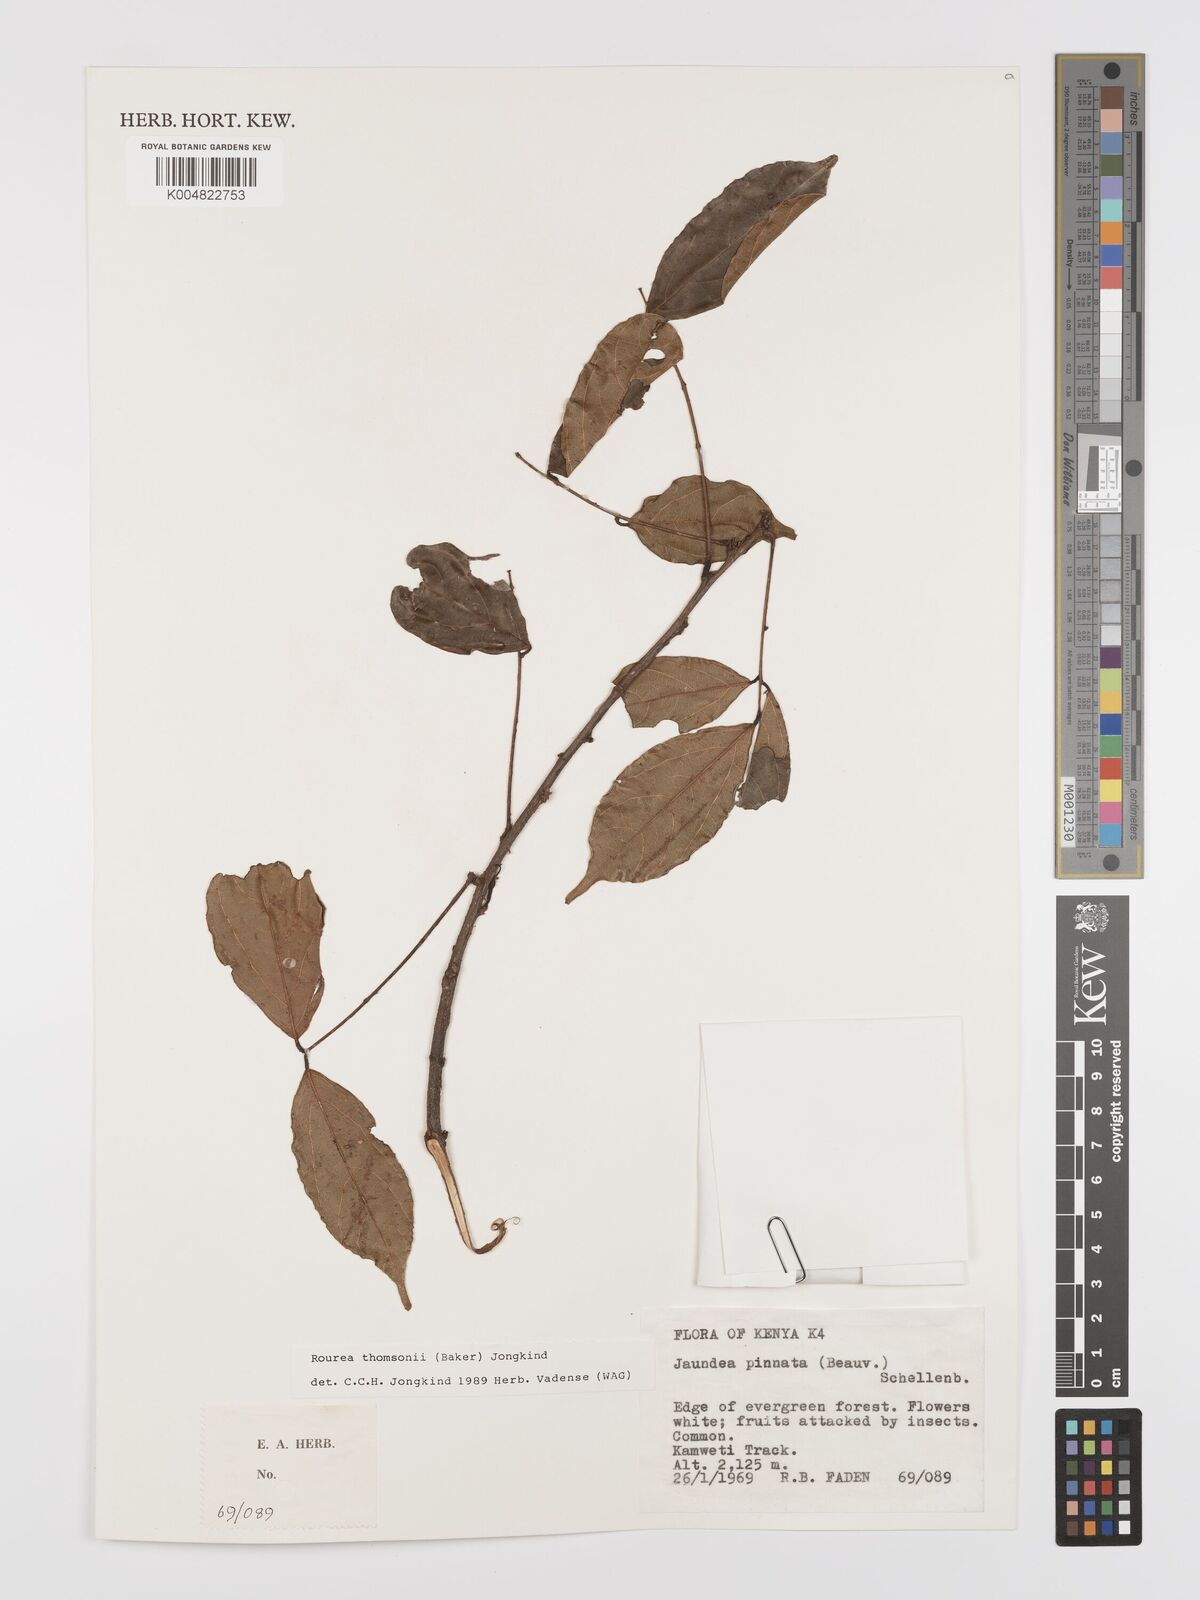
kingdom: Plantae
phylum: Tracheophyta
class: Magnoliopsida
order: Oxalidales
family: Connaraceae
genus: Rourea
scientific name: Rourea thomsonii
